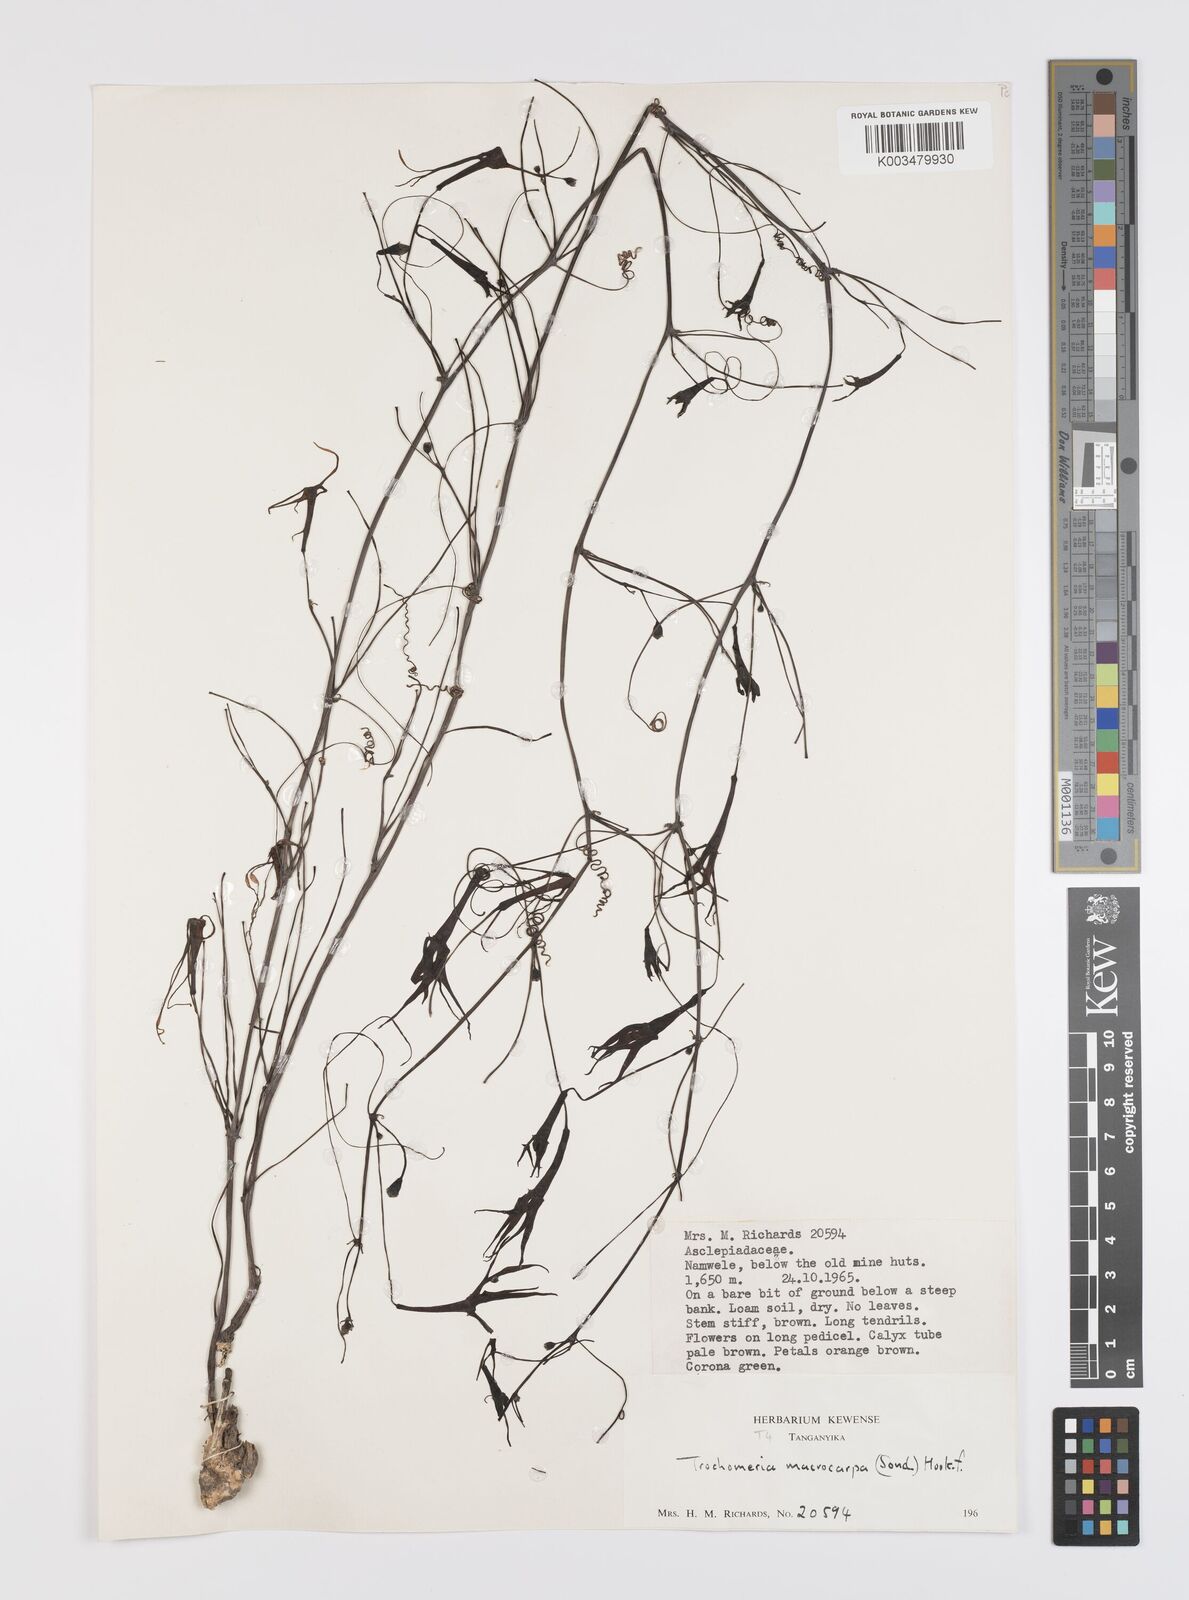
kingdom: Plantae
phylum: Tracheophyta
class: Magnoliopsida
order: Cucurbitales
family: Cucurbitaceae
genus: Trochomeria
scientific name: Trochomeria macrocarpa
